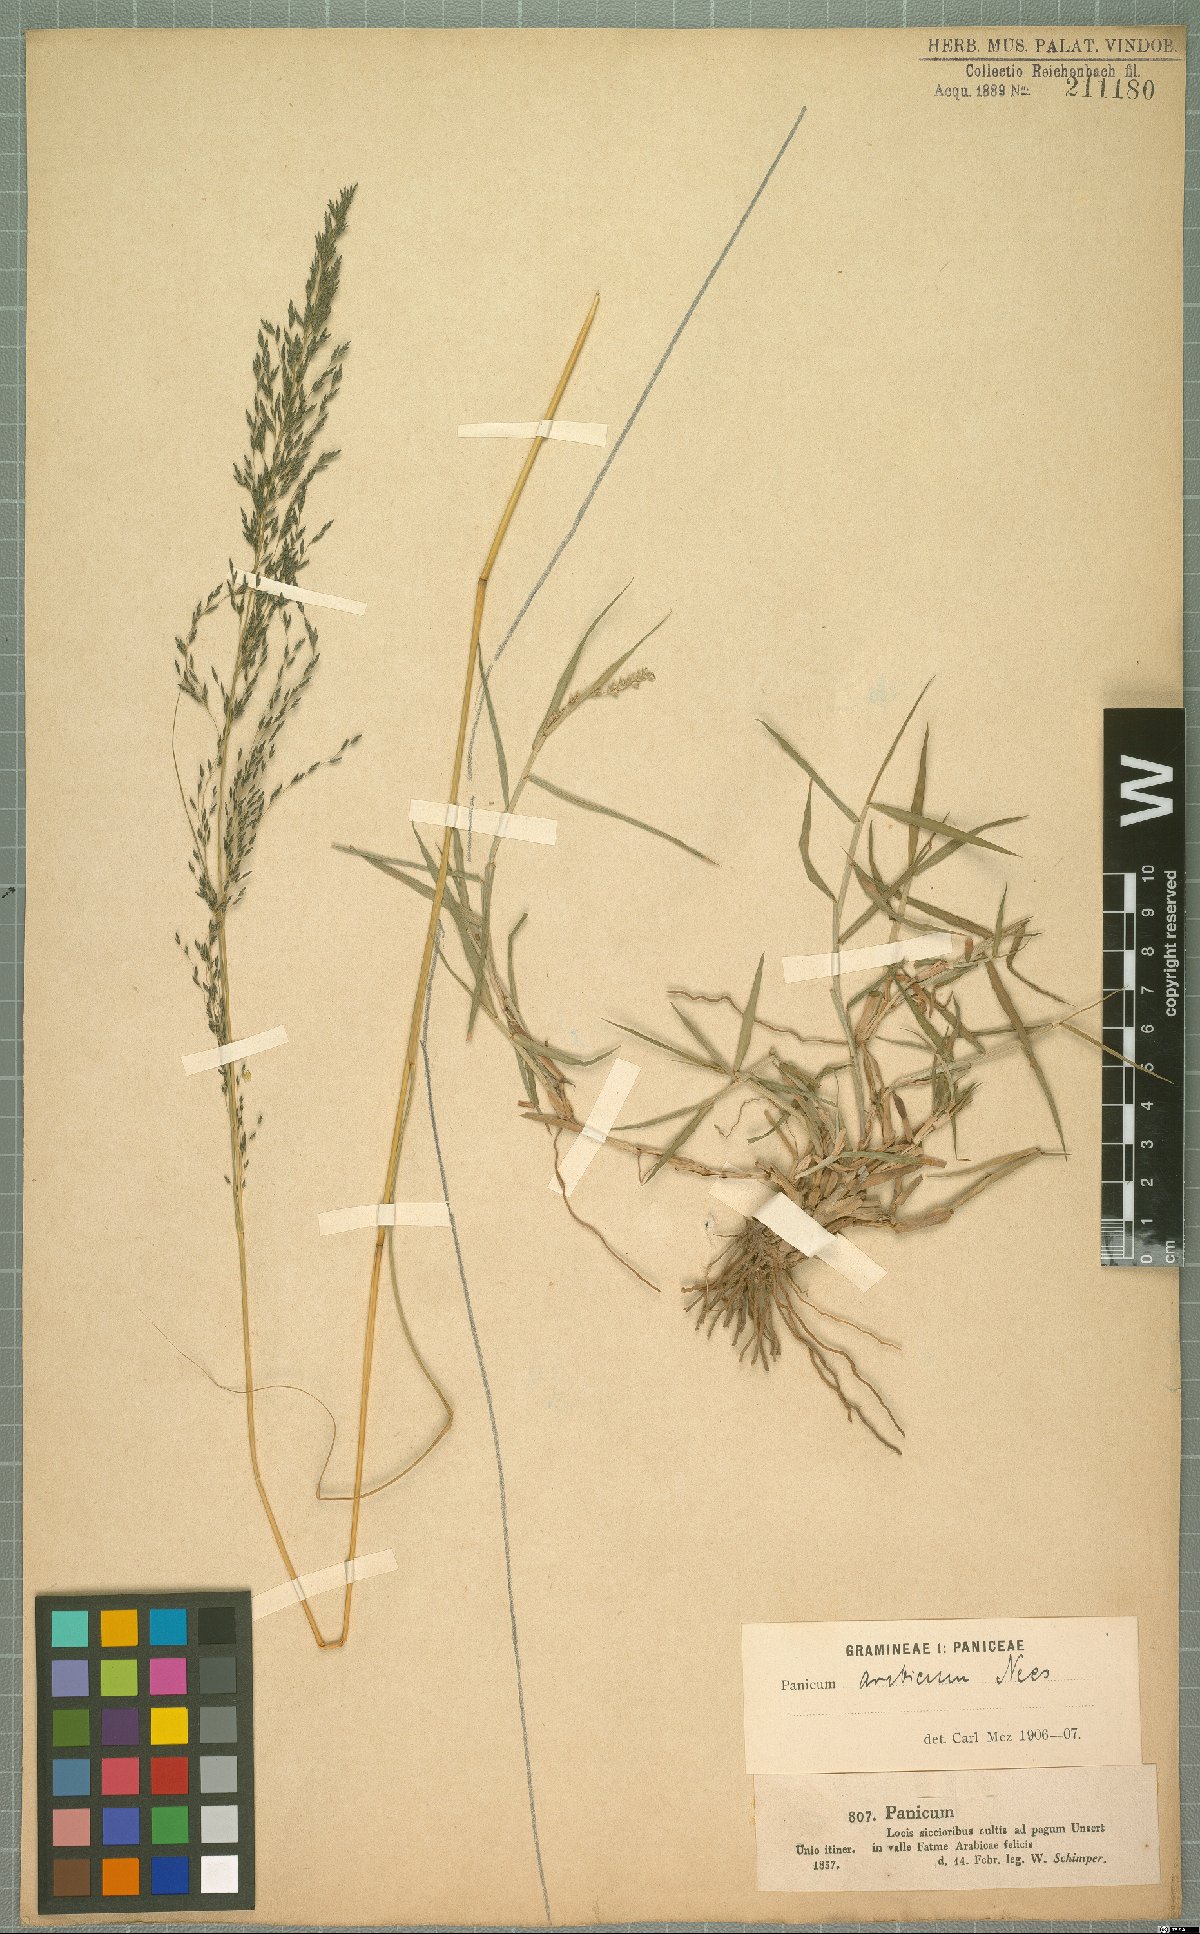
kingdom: Plantae
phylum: Tracheophyta
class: Liliopsida
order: Poales
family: Poaceae
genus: Setaria
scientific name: Setaria desertorum
